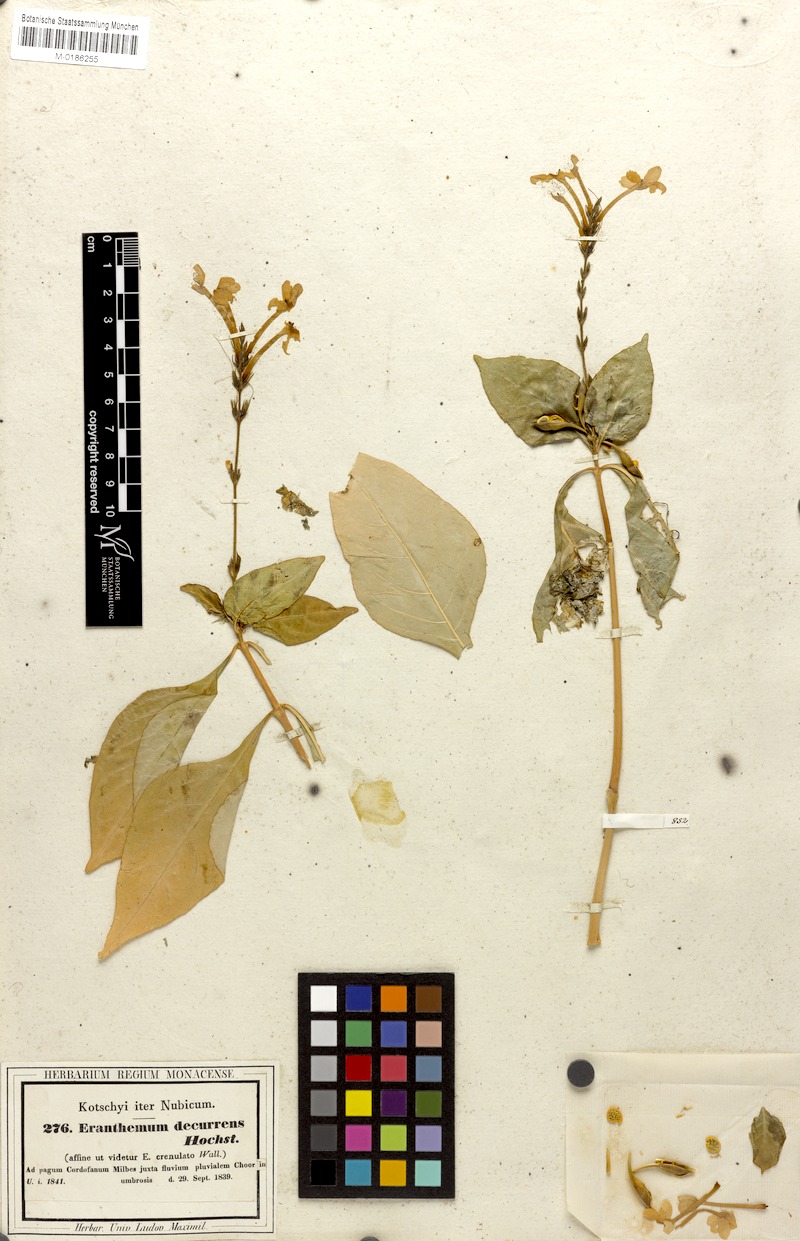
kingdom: Plantae
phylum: Tracheophyta
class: Magnoliopsida
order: Lamiales
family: Acanthaceae
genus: Ruspolia
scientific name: Ruspolia decurrens
